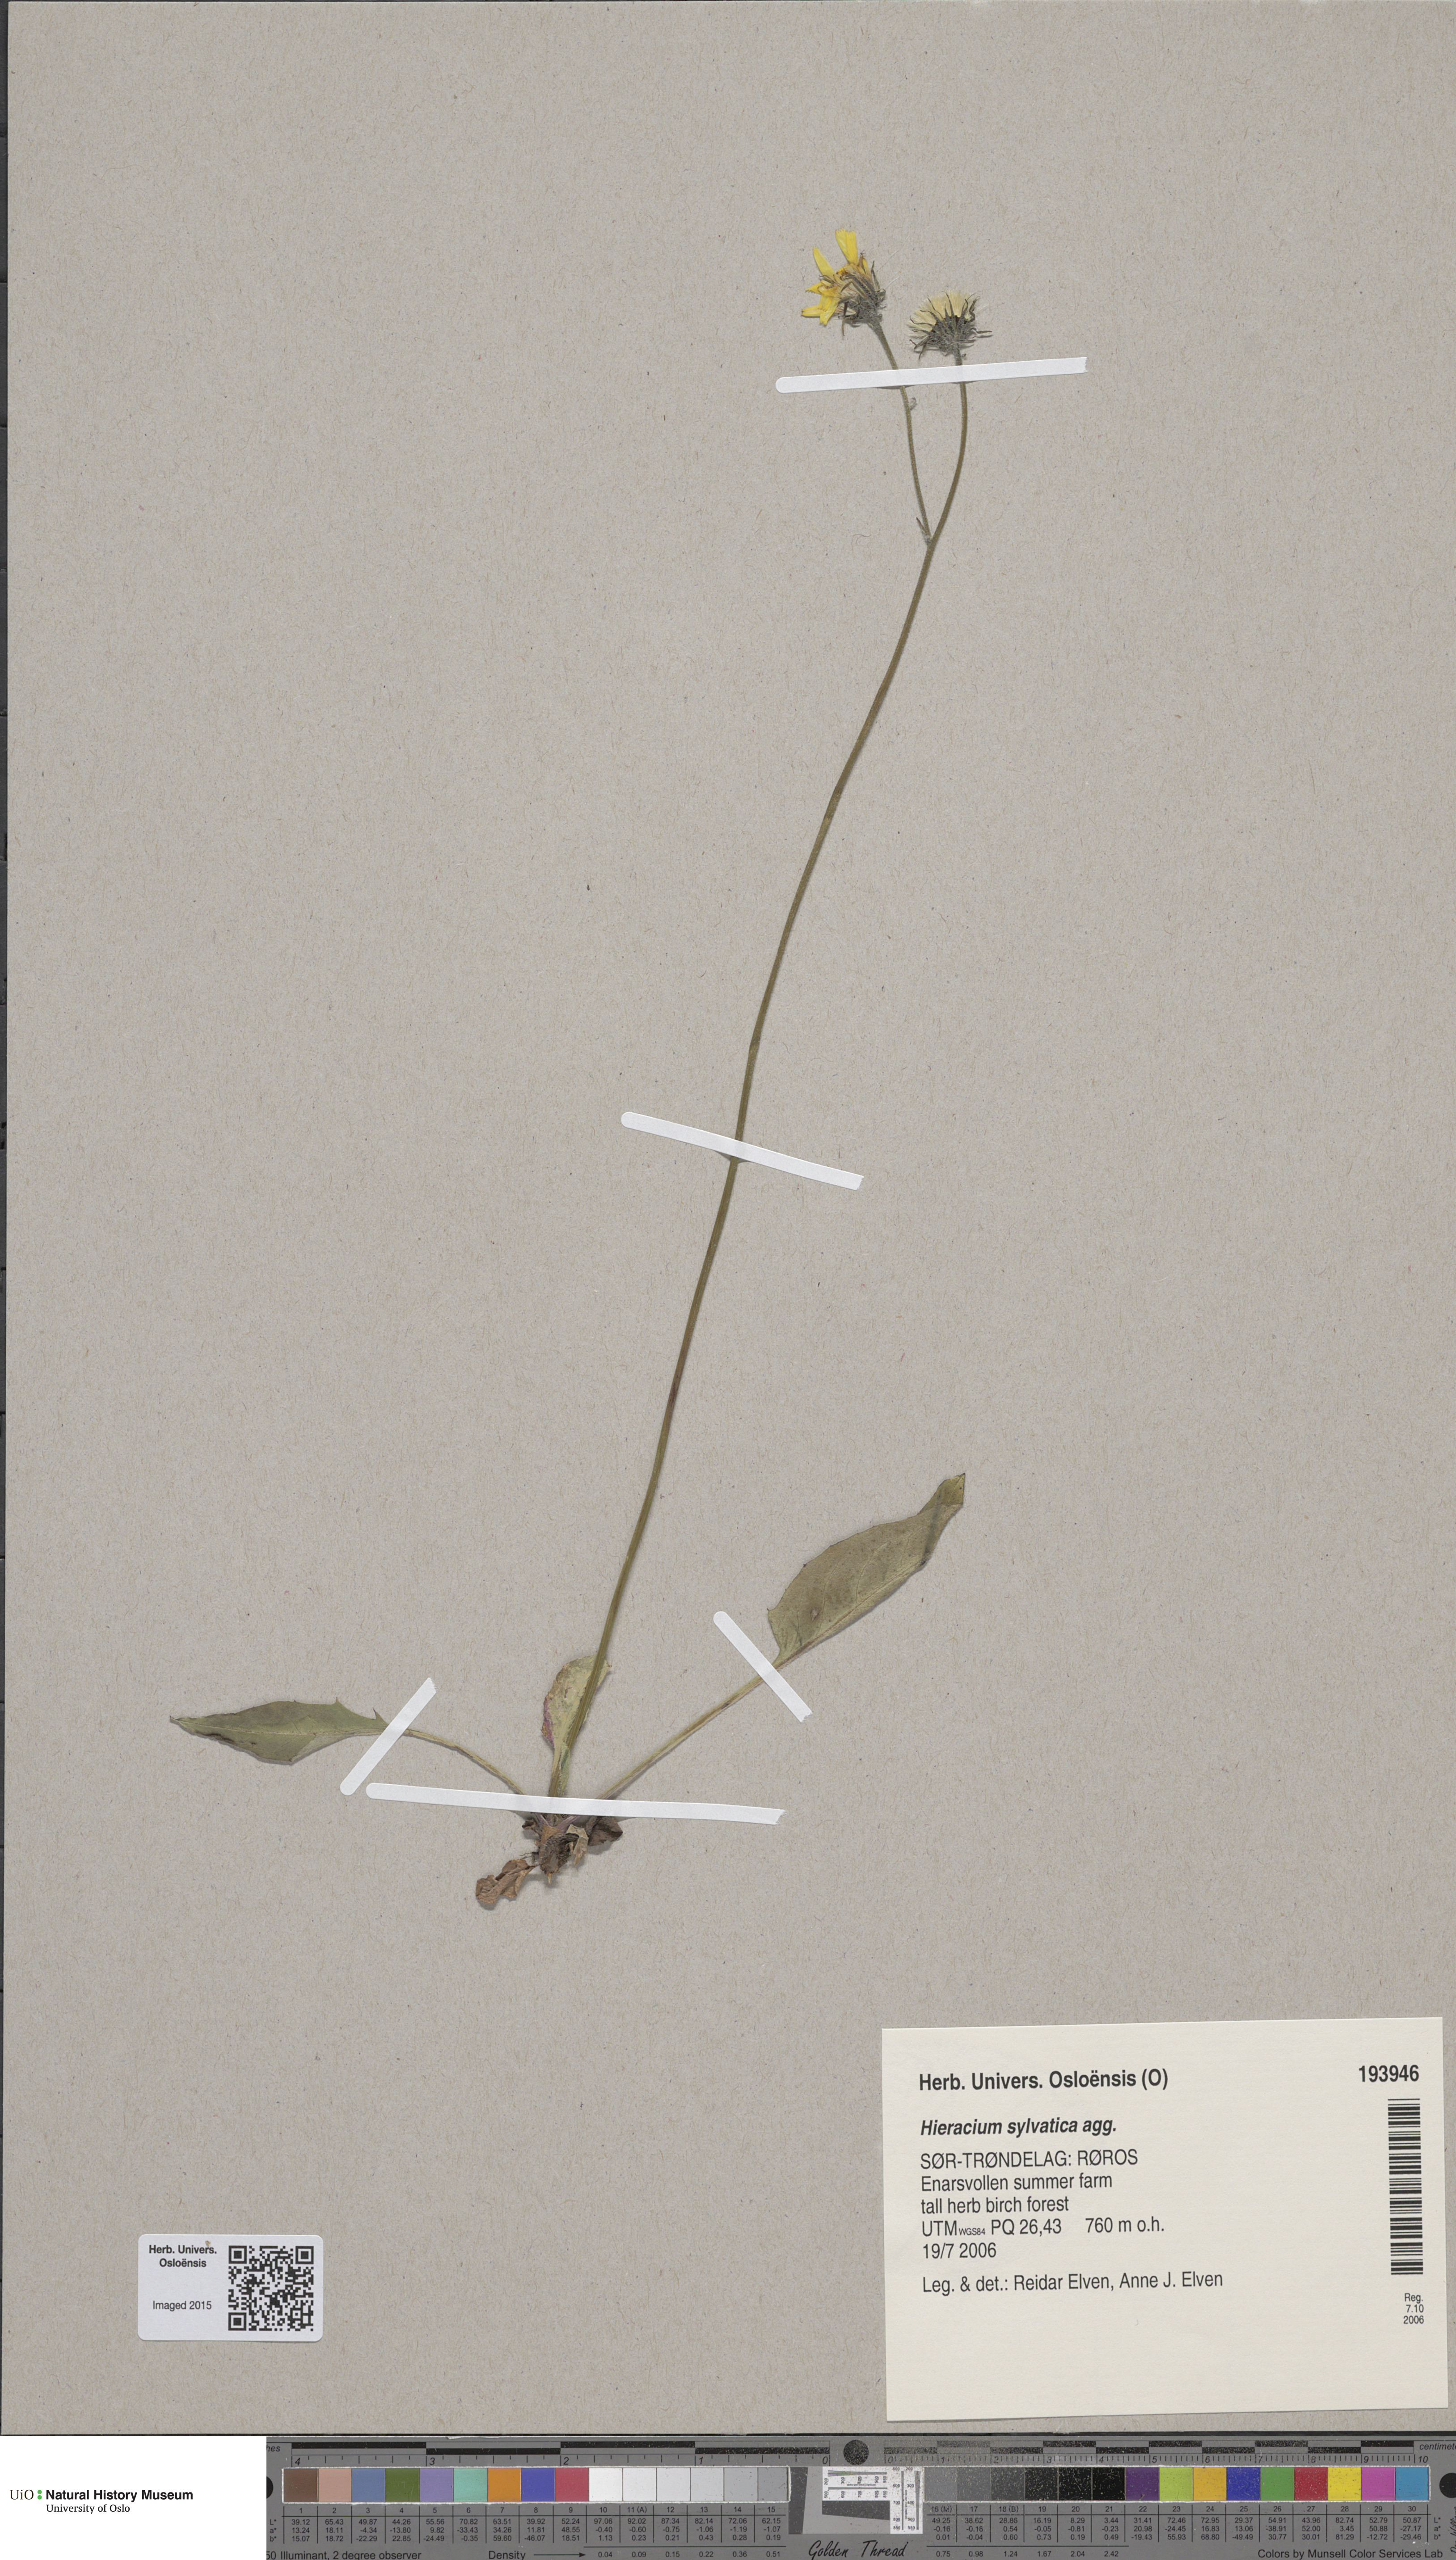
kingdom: Plantae
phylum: Tracheophyta
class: Magnoliopsida
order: Asterales
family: Asteraceae
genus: Hieracium
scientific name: Hieracium
